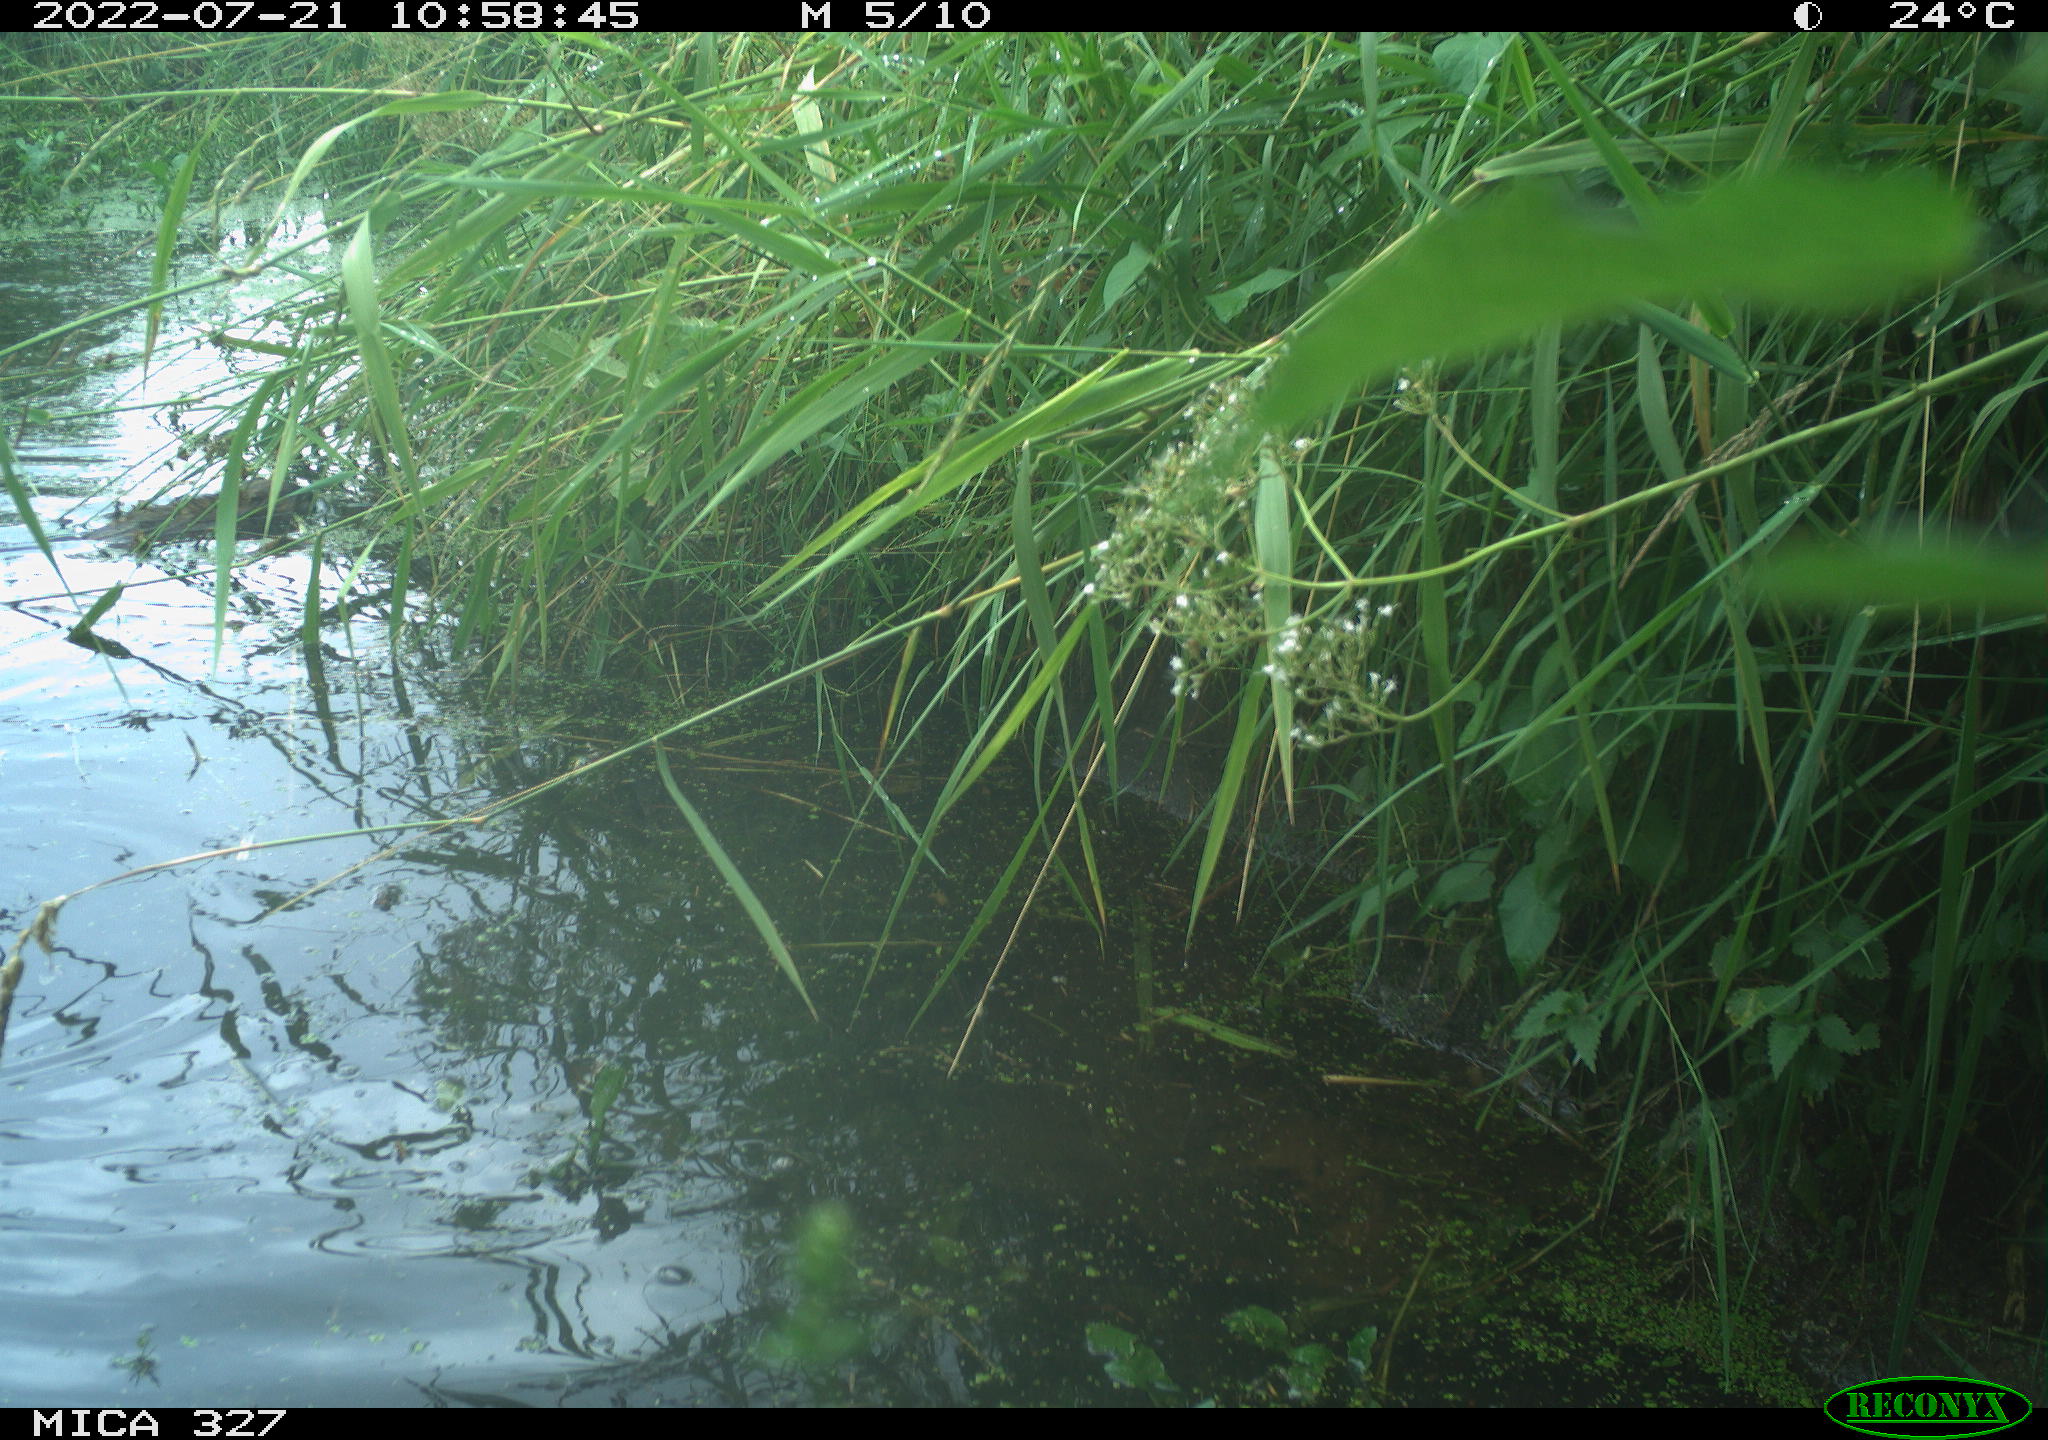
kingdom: Animalia
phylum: Chordata
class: Aves
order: Gruiformes
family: Rallidae
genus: Gallinula
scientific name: Gallinula chloropus
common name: Common moorhen
